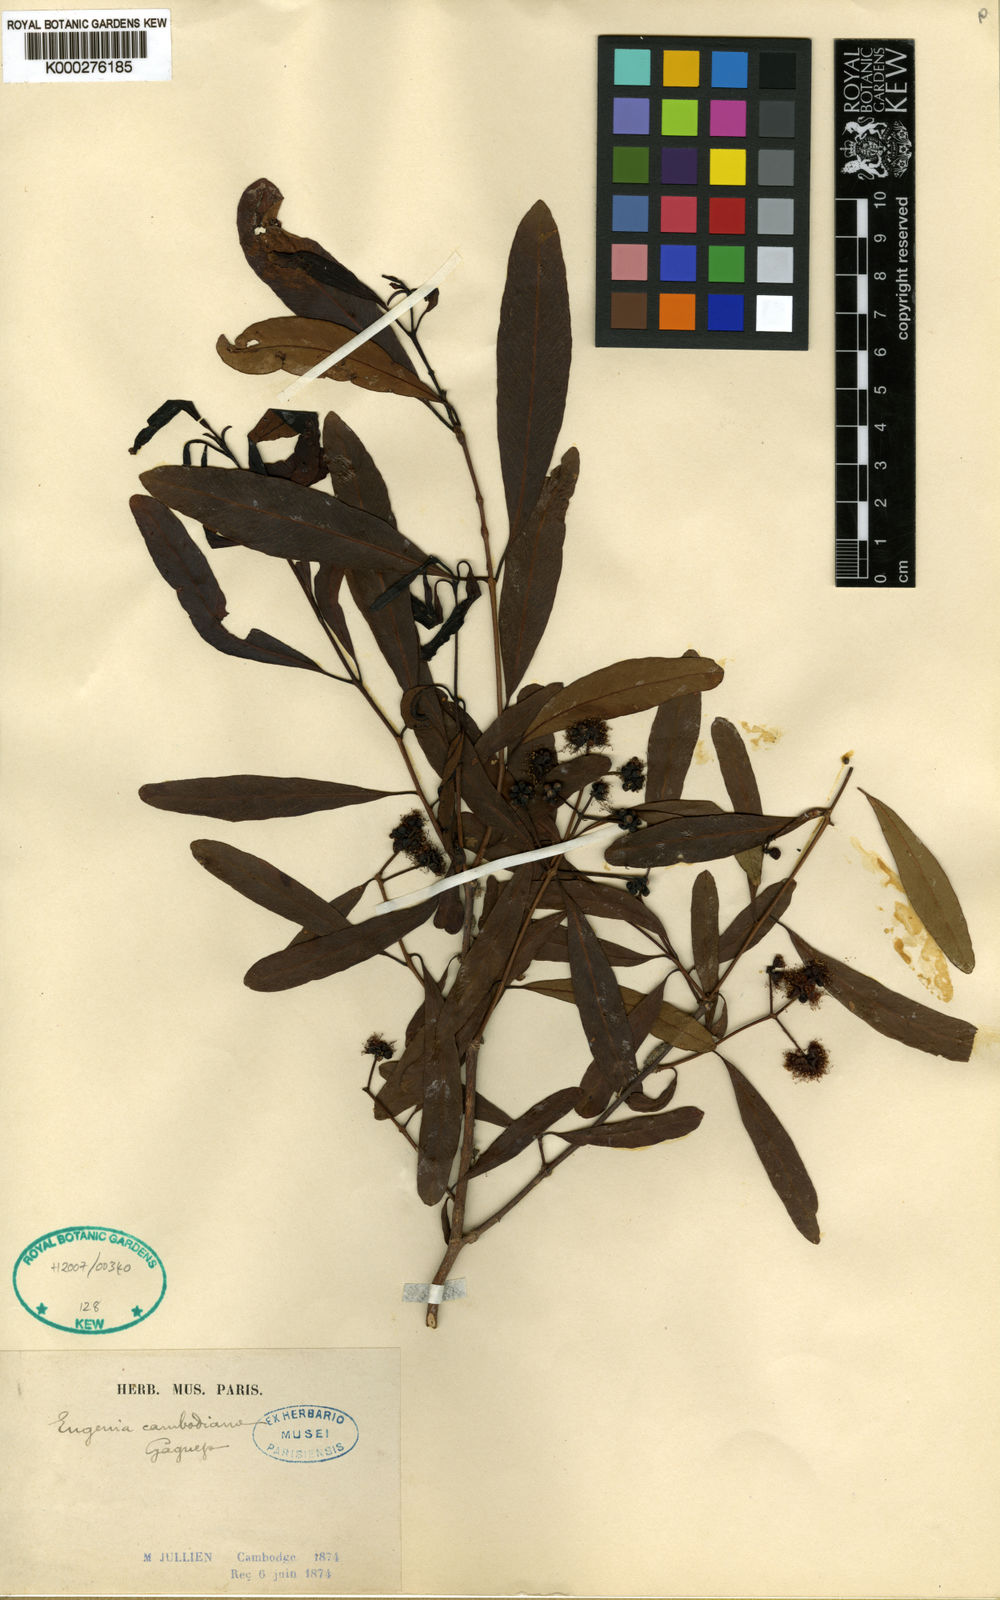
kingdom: Plantae
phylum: Tracheophyta
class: Magnoliopsida
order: Myrtales
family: Myrtaceae
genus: Syzygium
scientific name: Syzygium cambodianum
